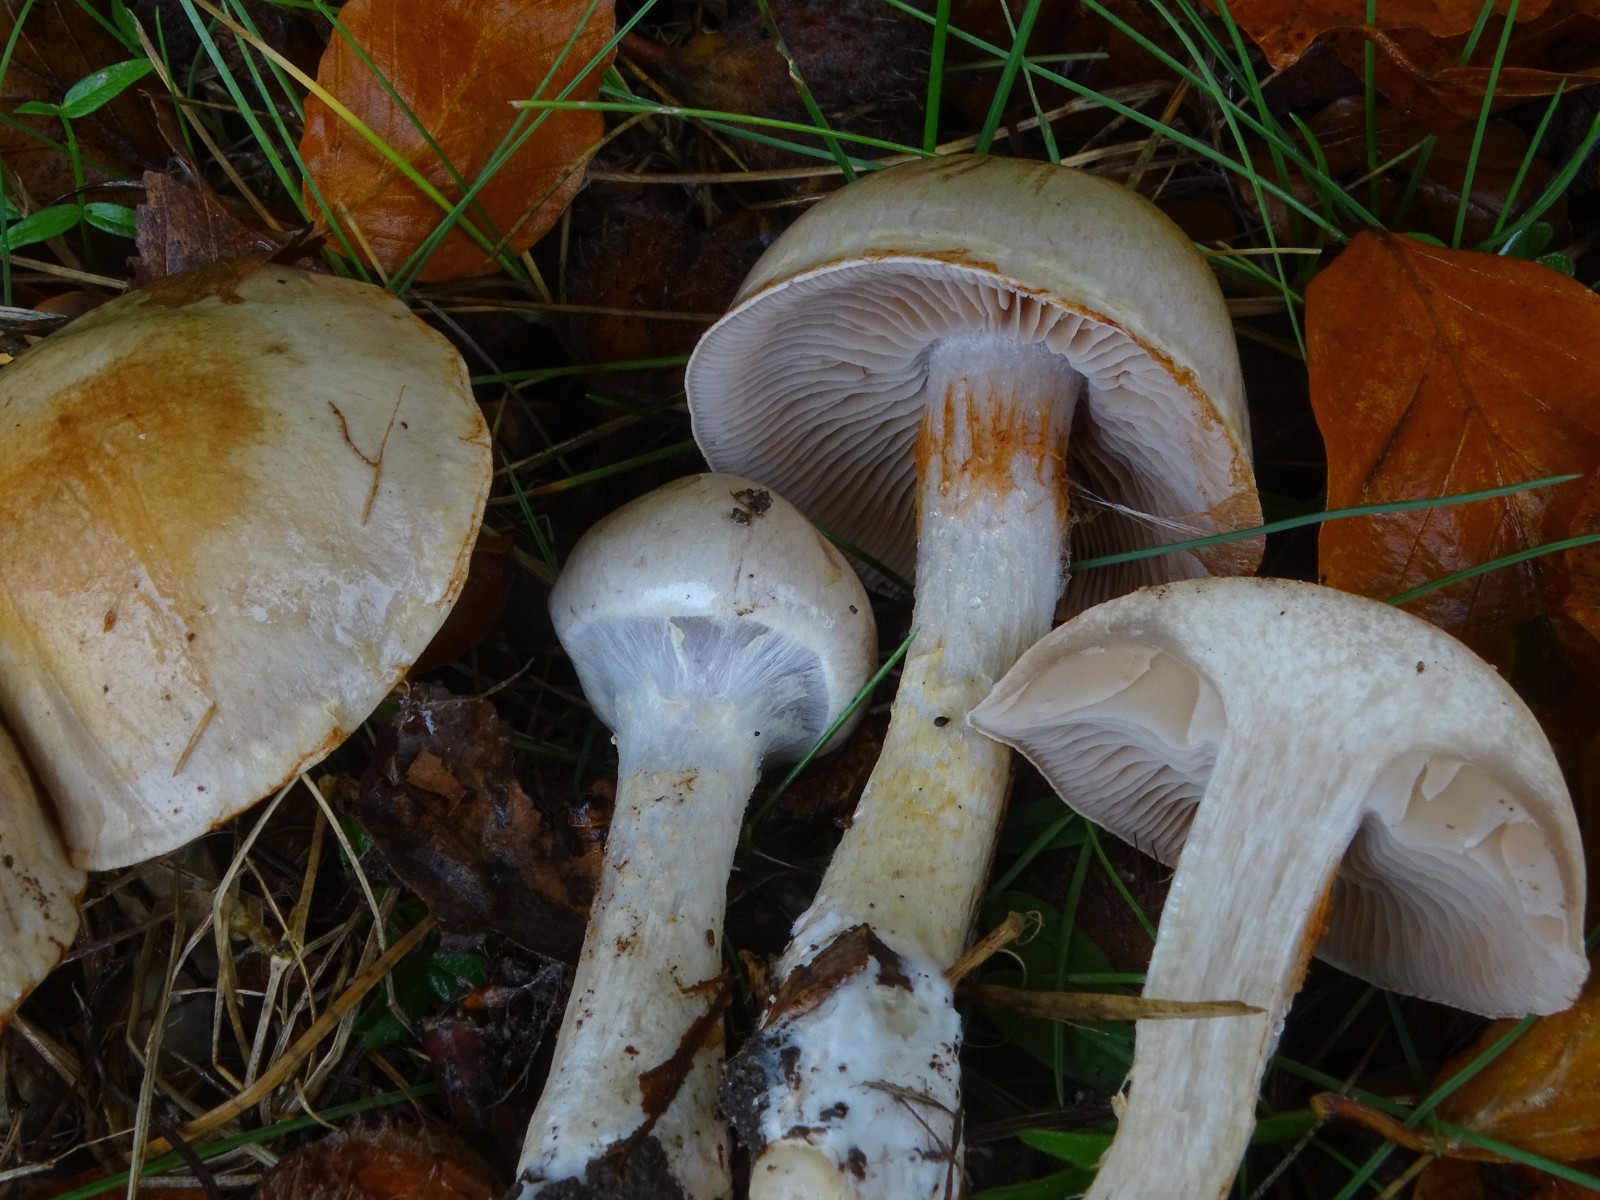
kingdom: Fungi
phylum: Basidiomycota
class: Agaricomycetes
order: Agaricales
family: Cortinariaceae
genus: Cortinarius
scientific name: Cortinarius
